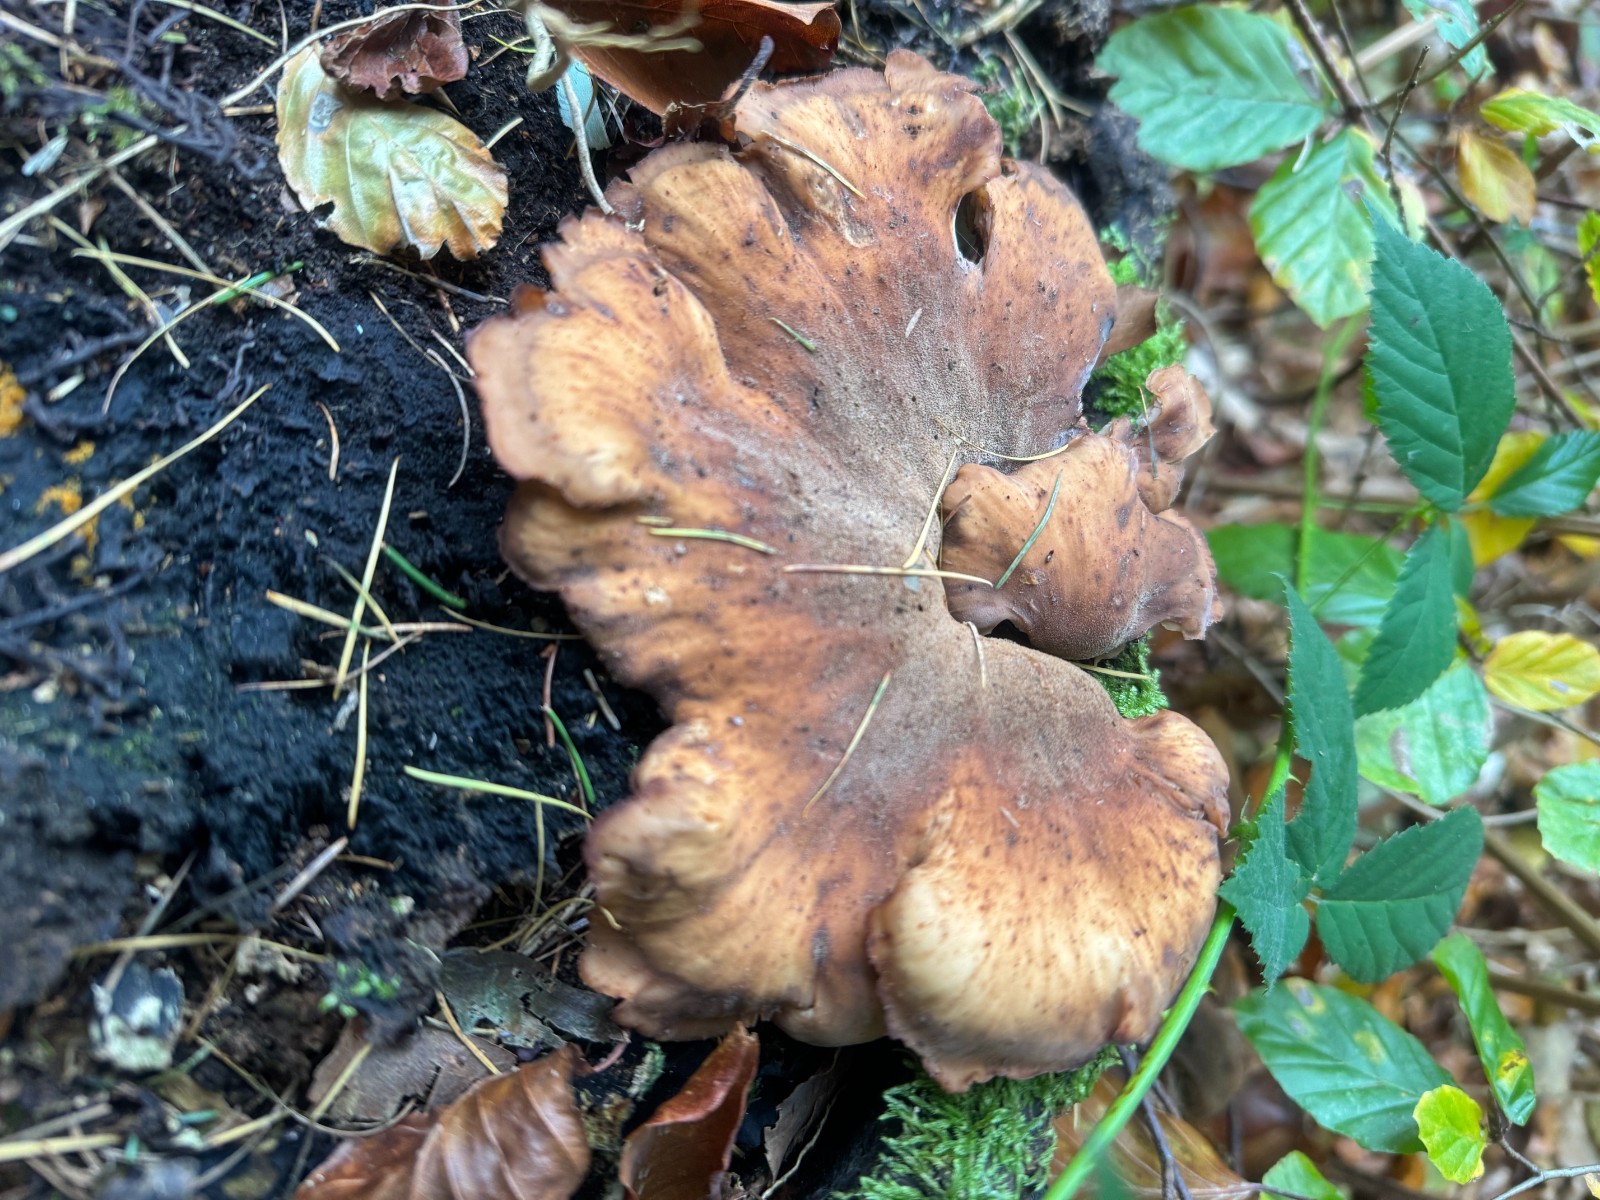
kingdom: Fungi
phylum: Basidiomycota
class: Agaricomycetes
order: Russulales
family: Auriscalpiaceae
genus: Lentinellus
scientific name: Lentinellus cochleatus
